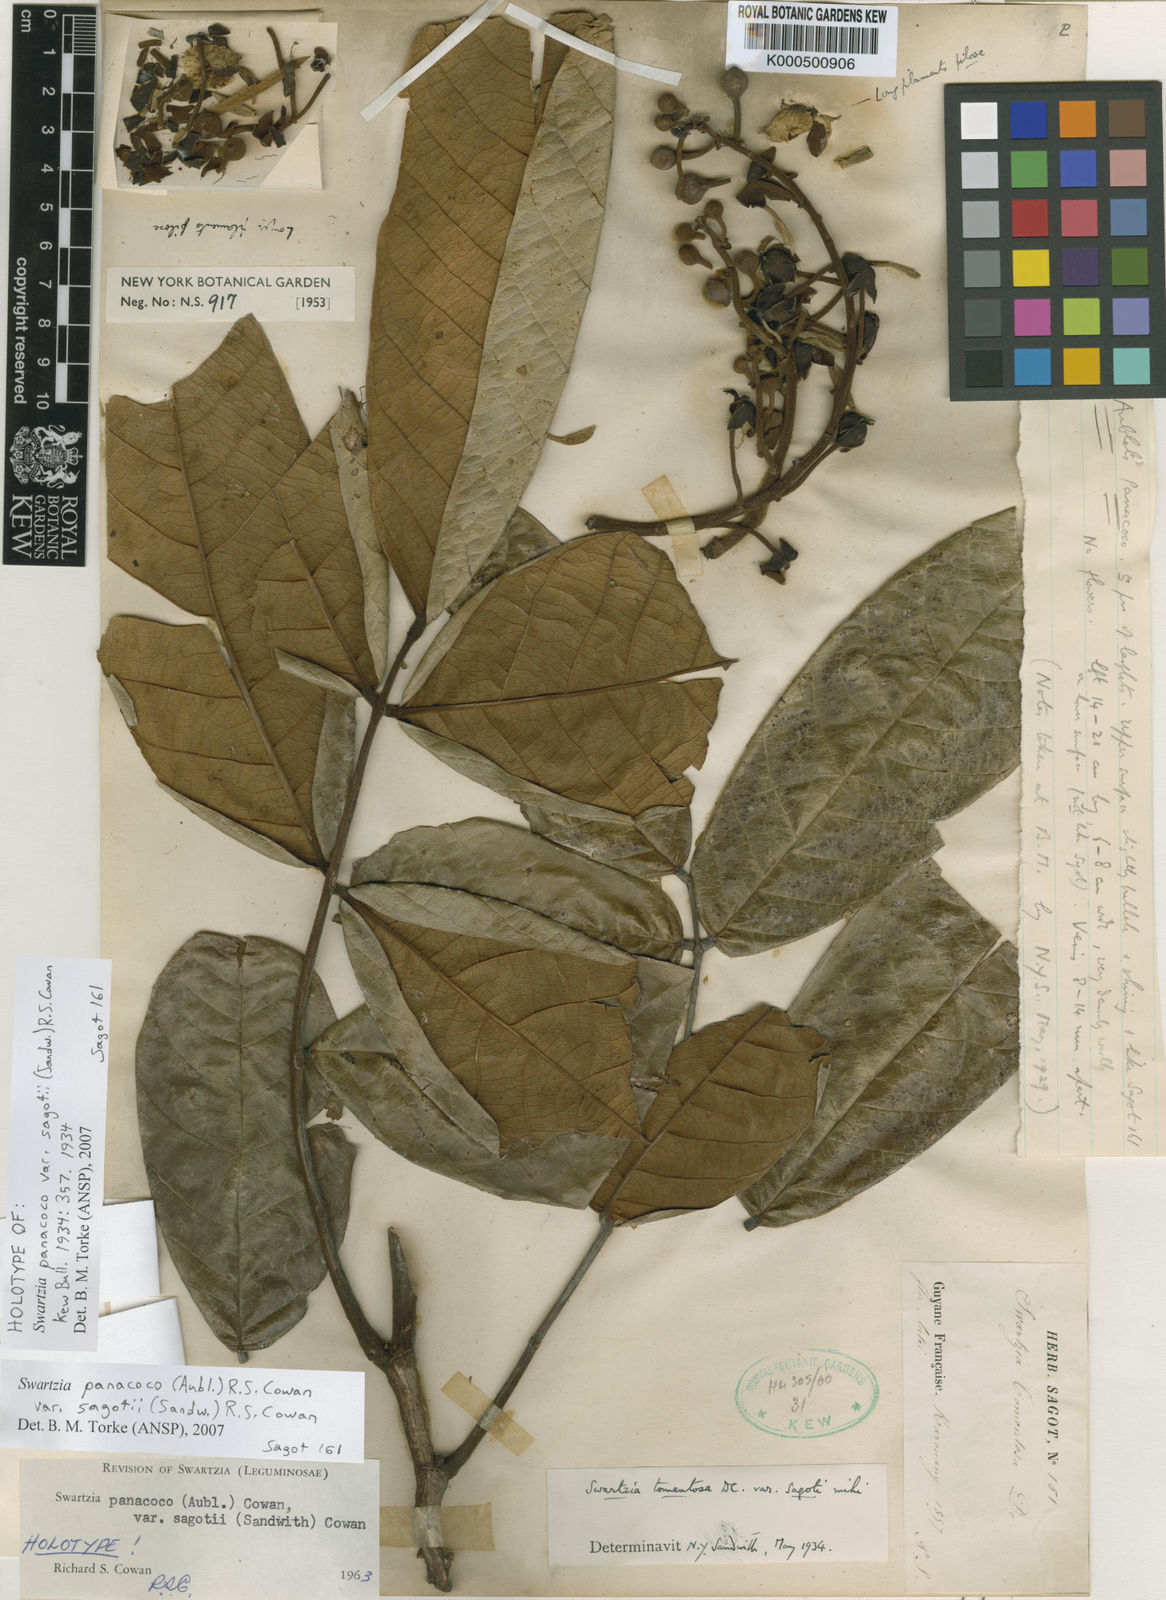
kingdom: Plantae
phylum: Tracheophyta
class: Magnoliopsida
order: Fabales
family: Fabaceae
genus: Swartzia
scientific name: Swartzia panacoco
